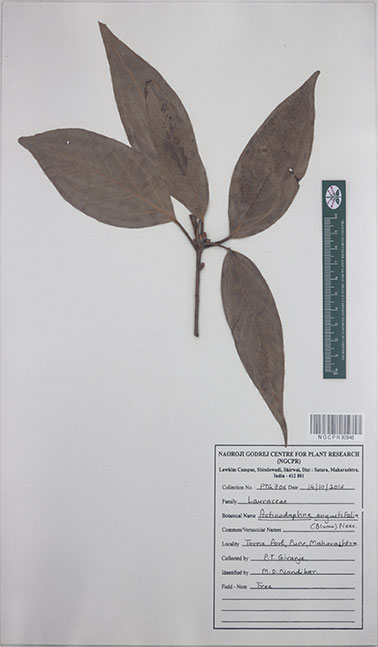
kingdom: Plantae
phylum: Tracheophyta
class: Magnoliopsida
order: Laurales
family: Lauraceae
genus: Actinodaphne
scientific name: Actinodaphne angustifolia
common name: Pisatree
